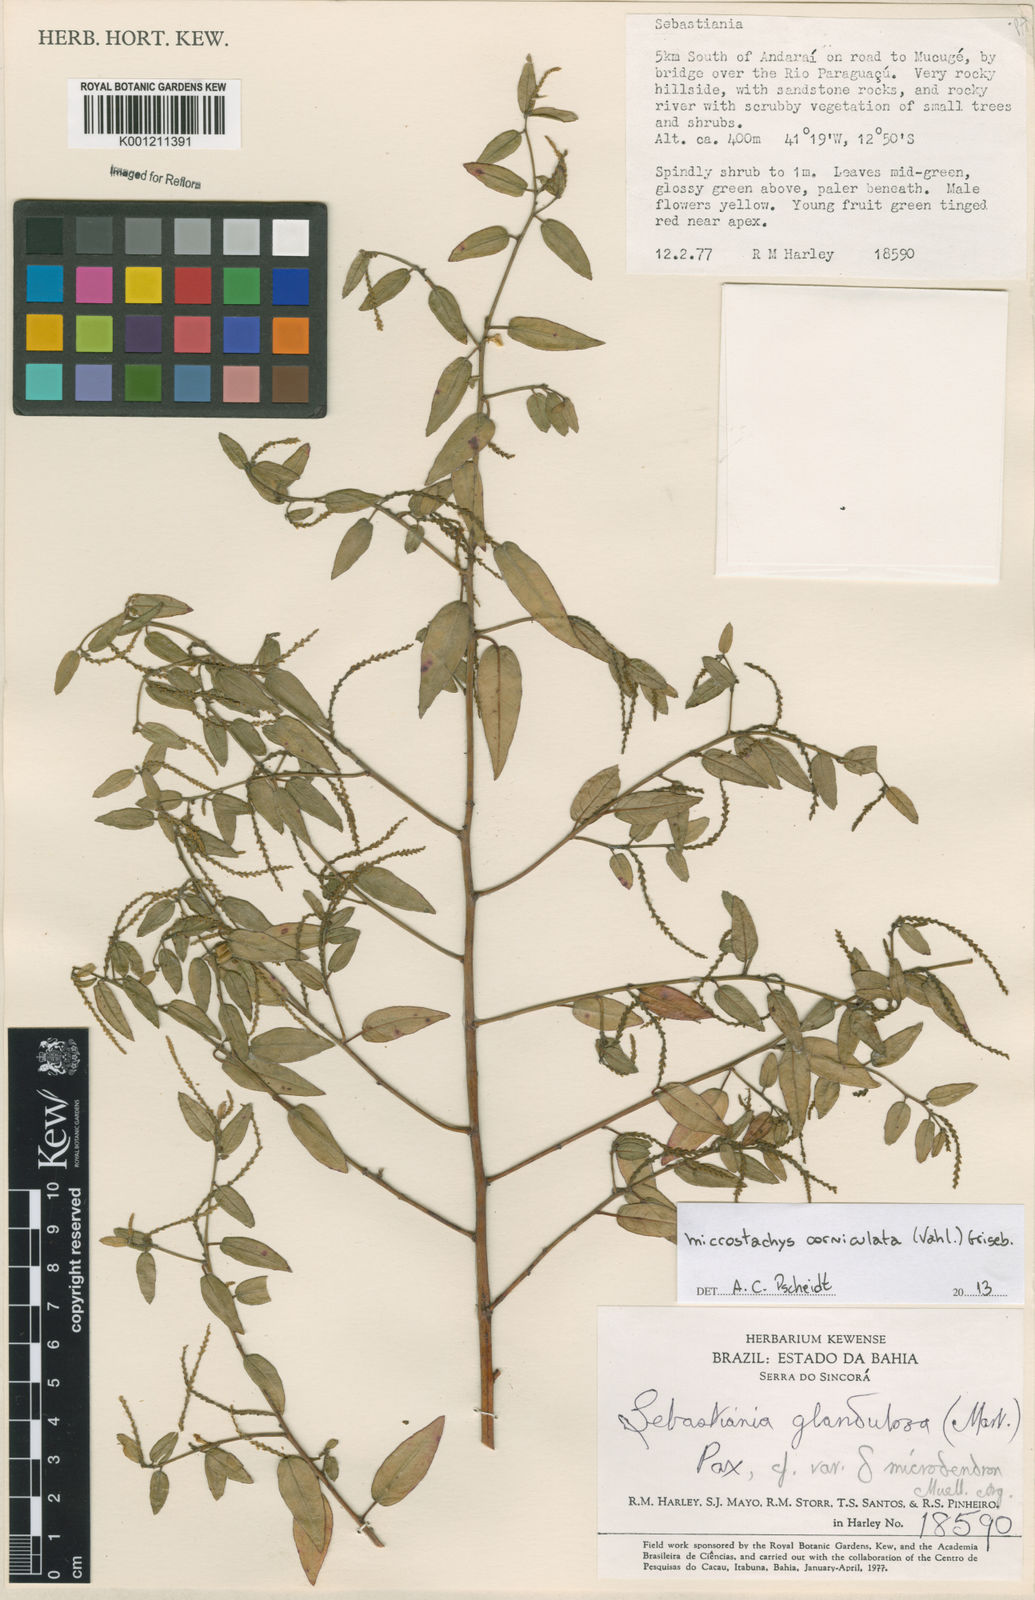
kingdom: Plantae
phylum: Tracheophyta
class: Magnoliopsida
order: Malpighiales
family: Euphorbiaceae
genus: Microstachys
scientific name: Microstachys corniculata
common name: Hato tejas
